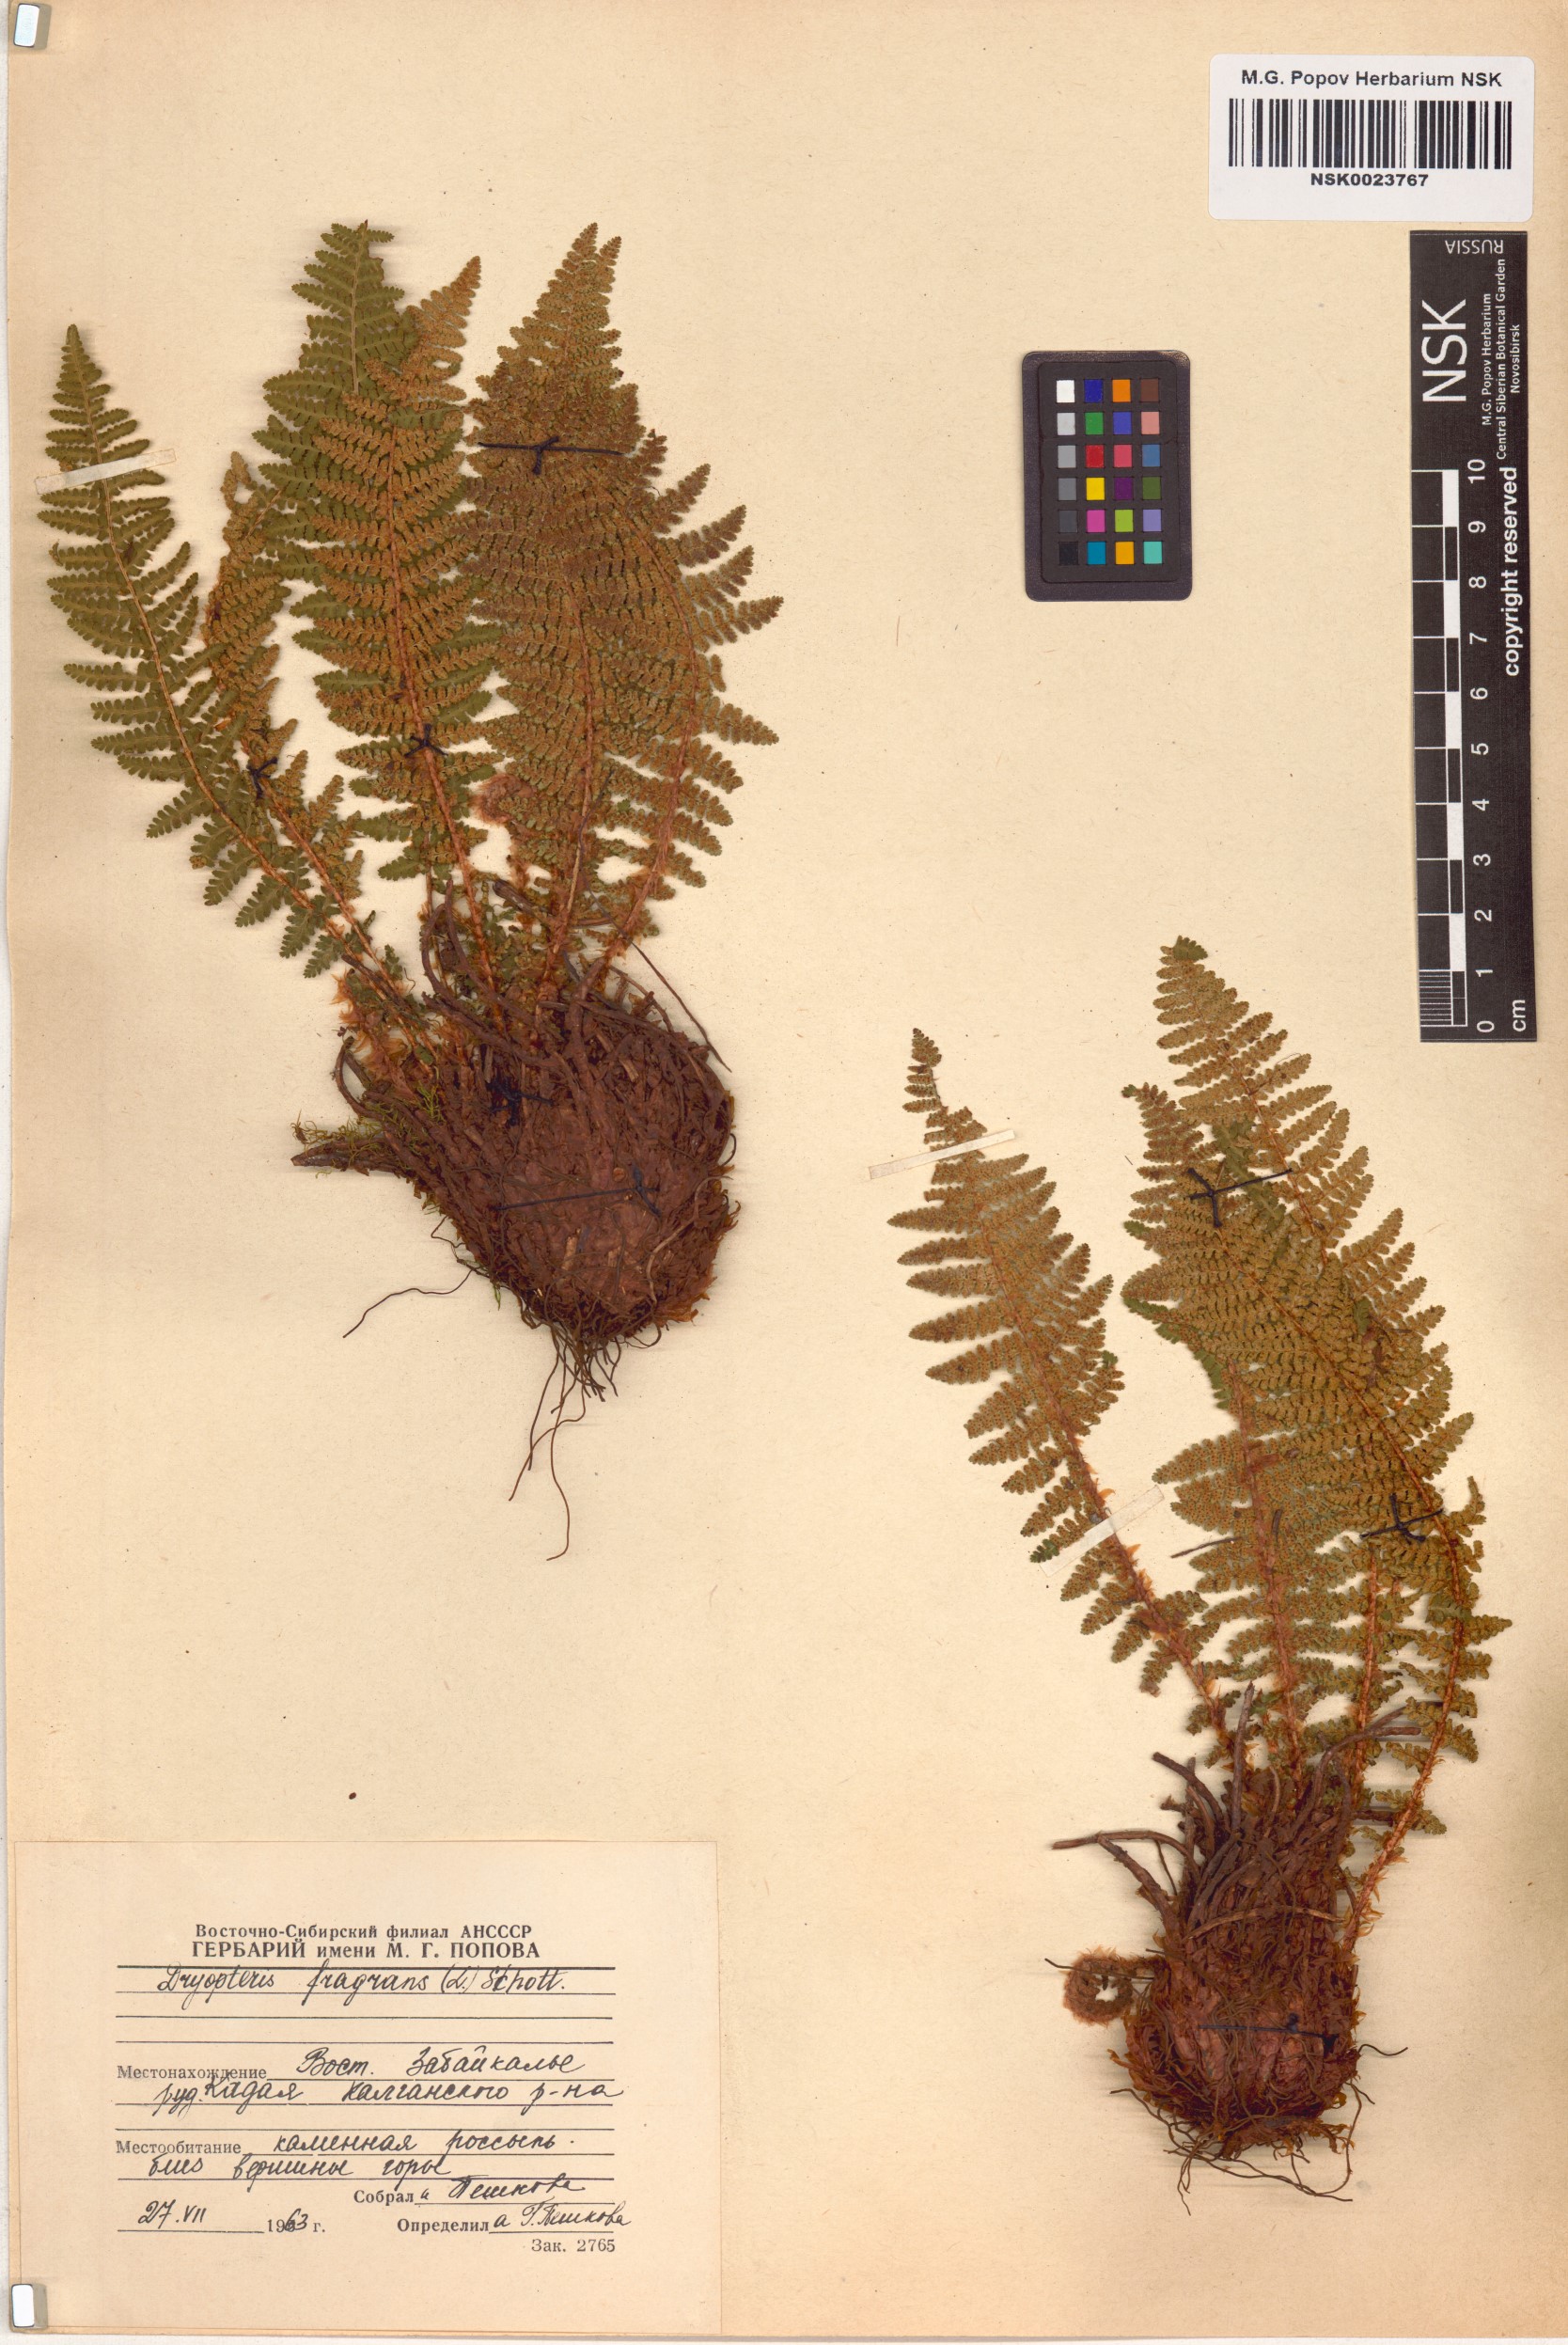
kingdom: Plantae
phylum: Tracheophyta
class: Polypodiopsida
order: Polypodiales
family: Dryopteridaceae
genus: Dryopteris
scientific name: Dryopteris fragrans
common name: Fragrant wood fern
